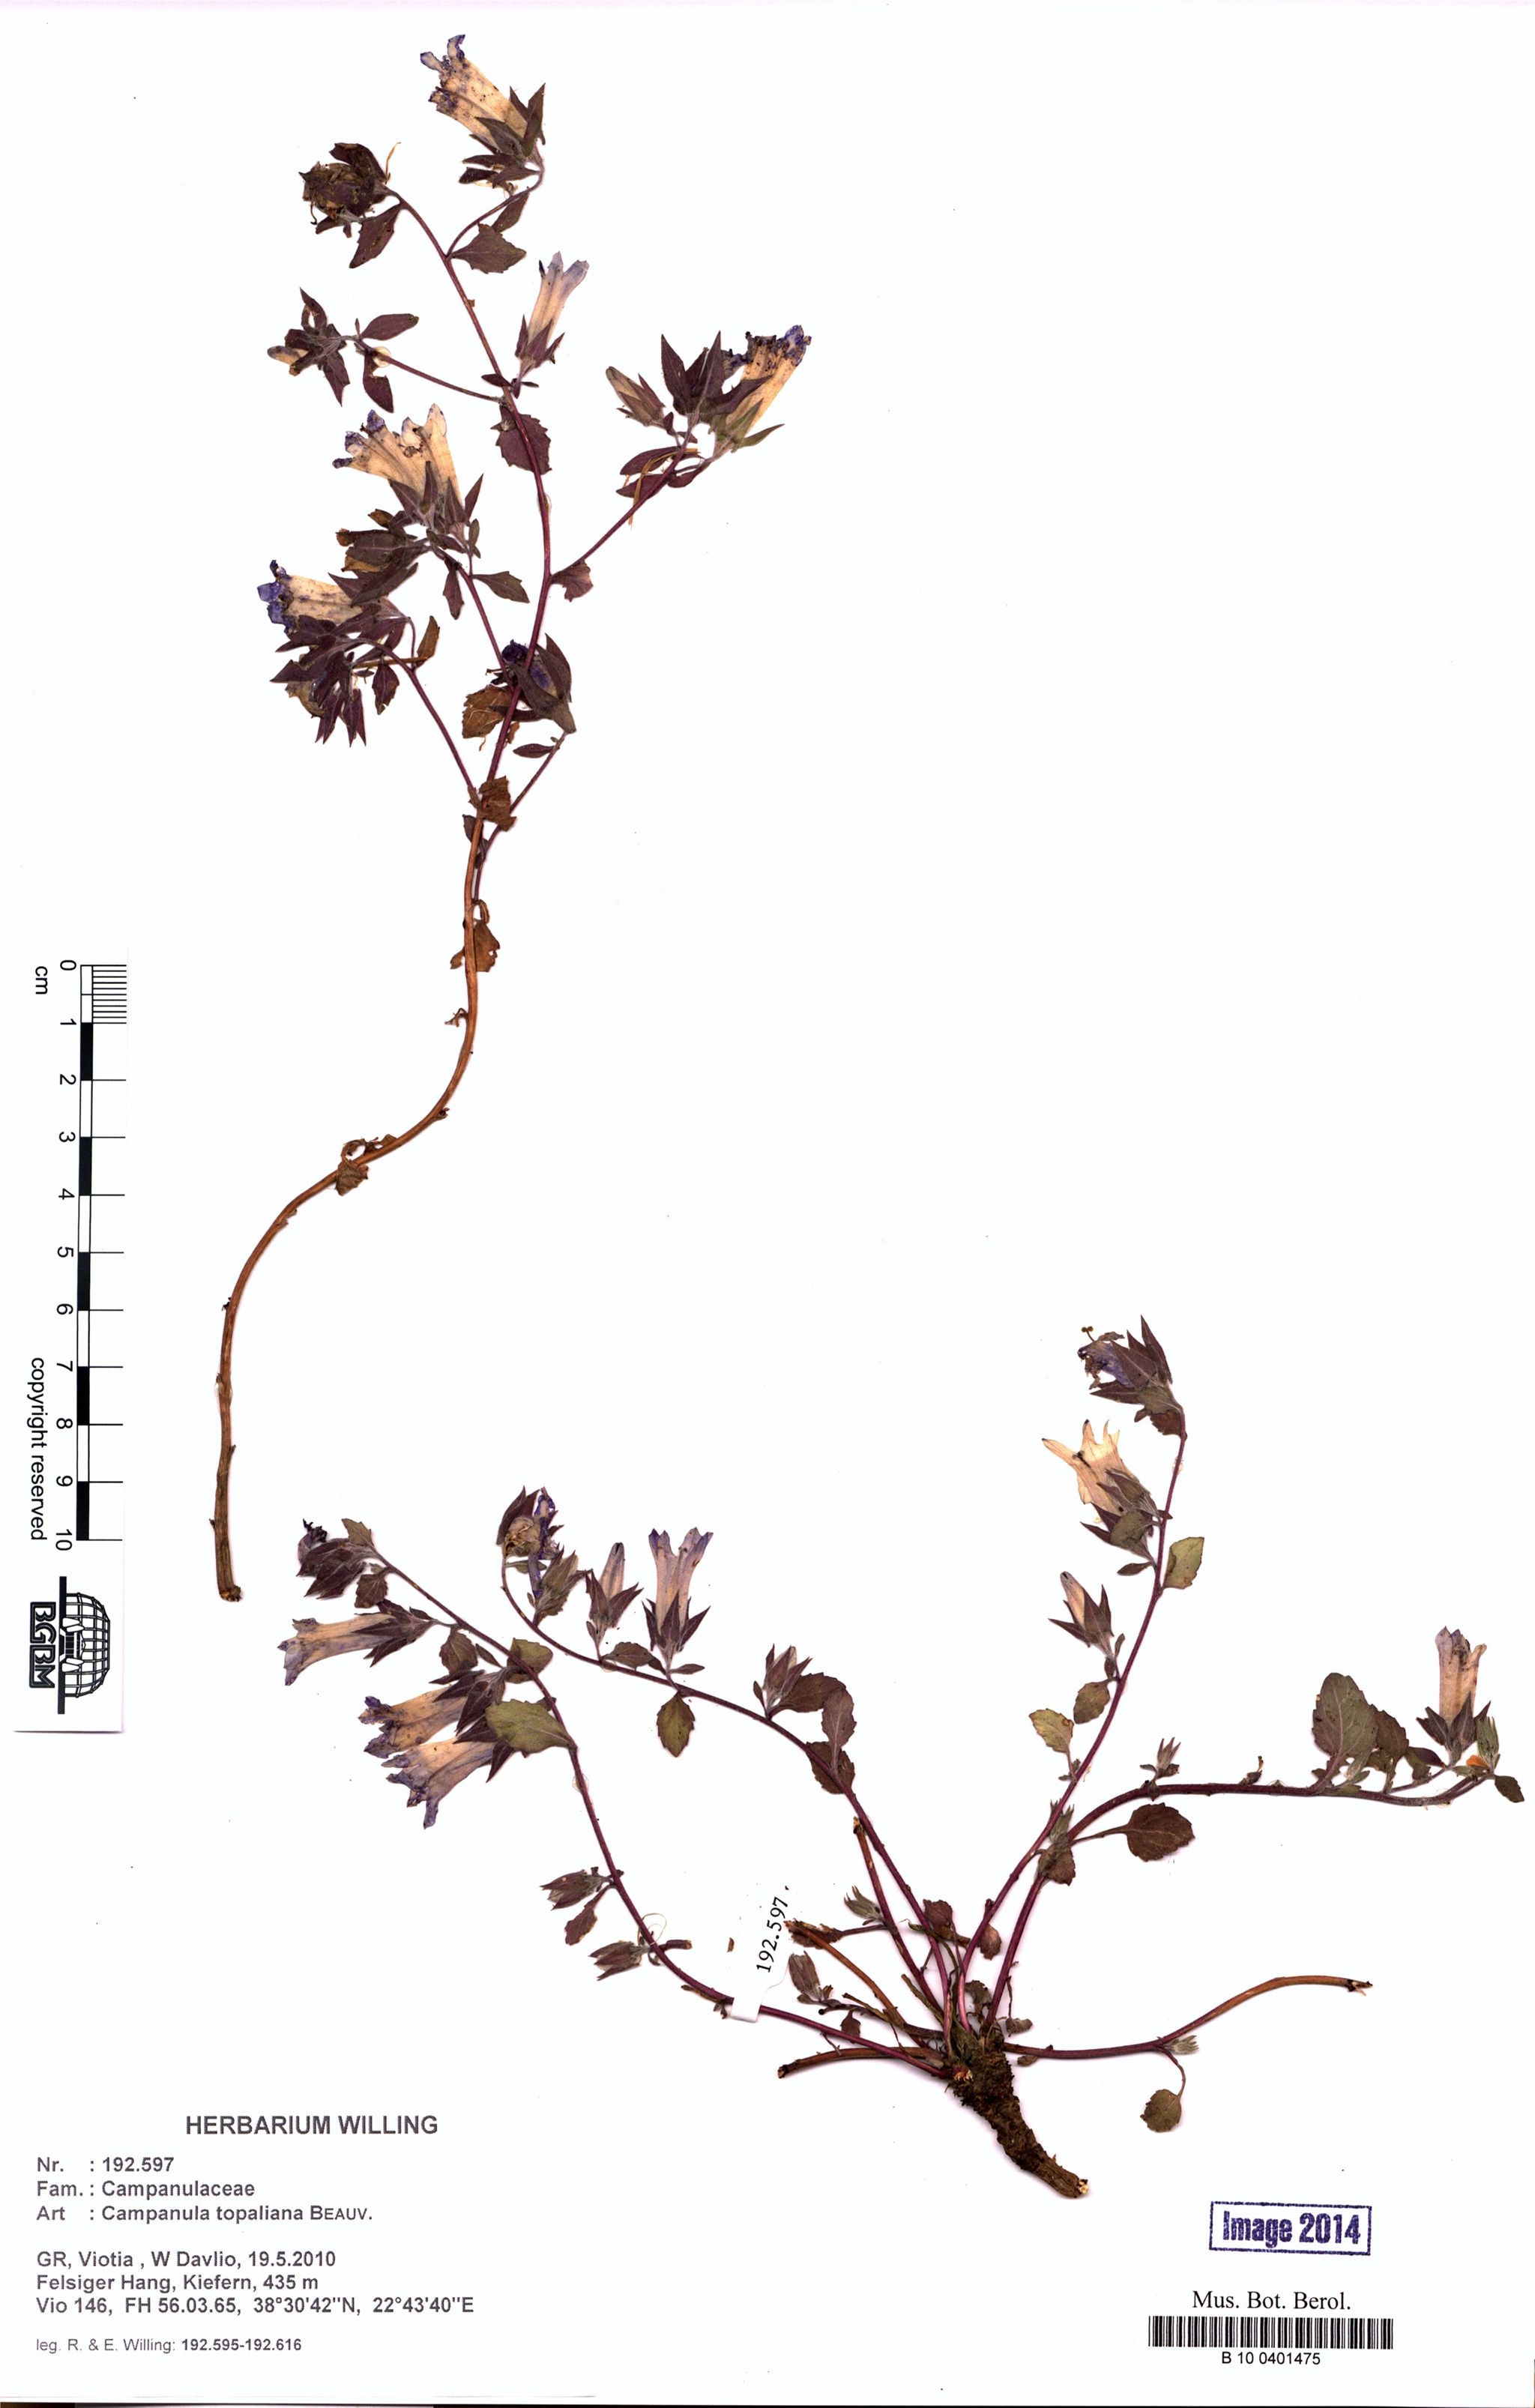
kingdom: Plantae
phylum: Tracheophyta
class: Magnoliopsida
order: Asterales
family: Campanulaceae
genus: Campanula
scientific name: Campanula topaliana
